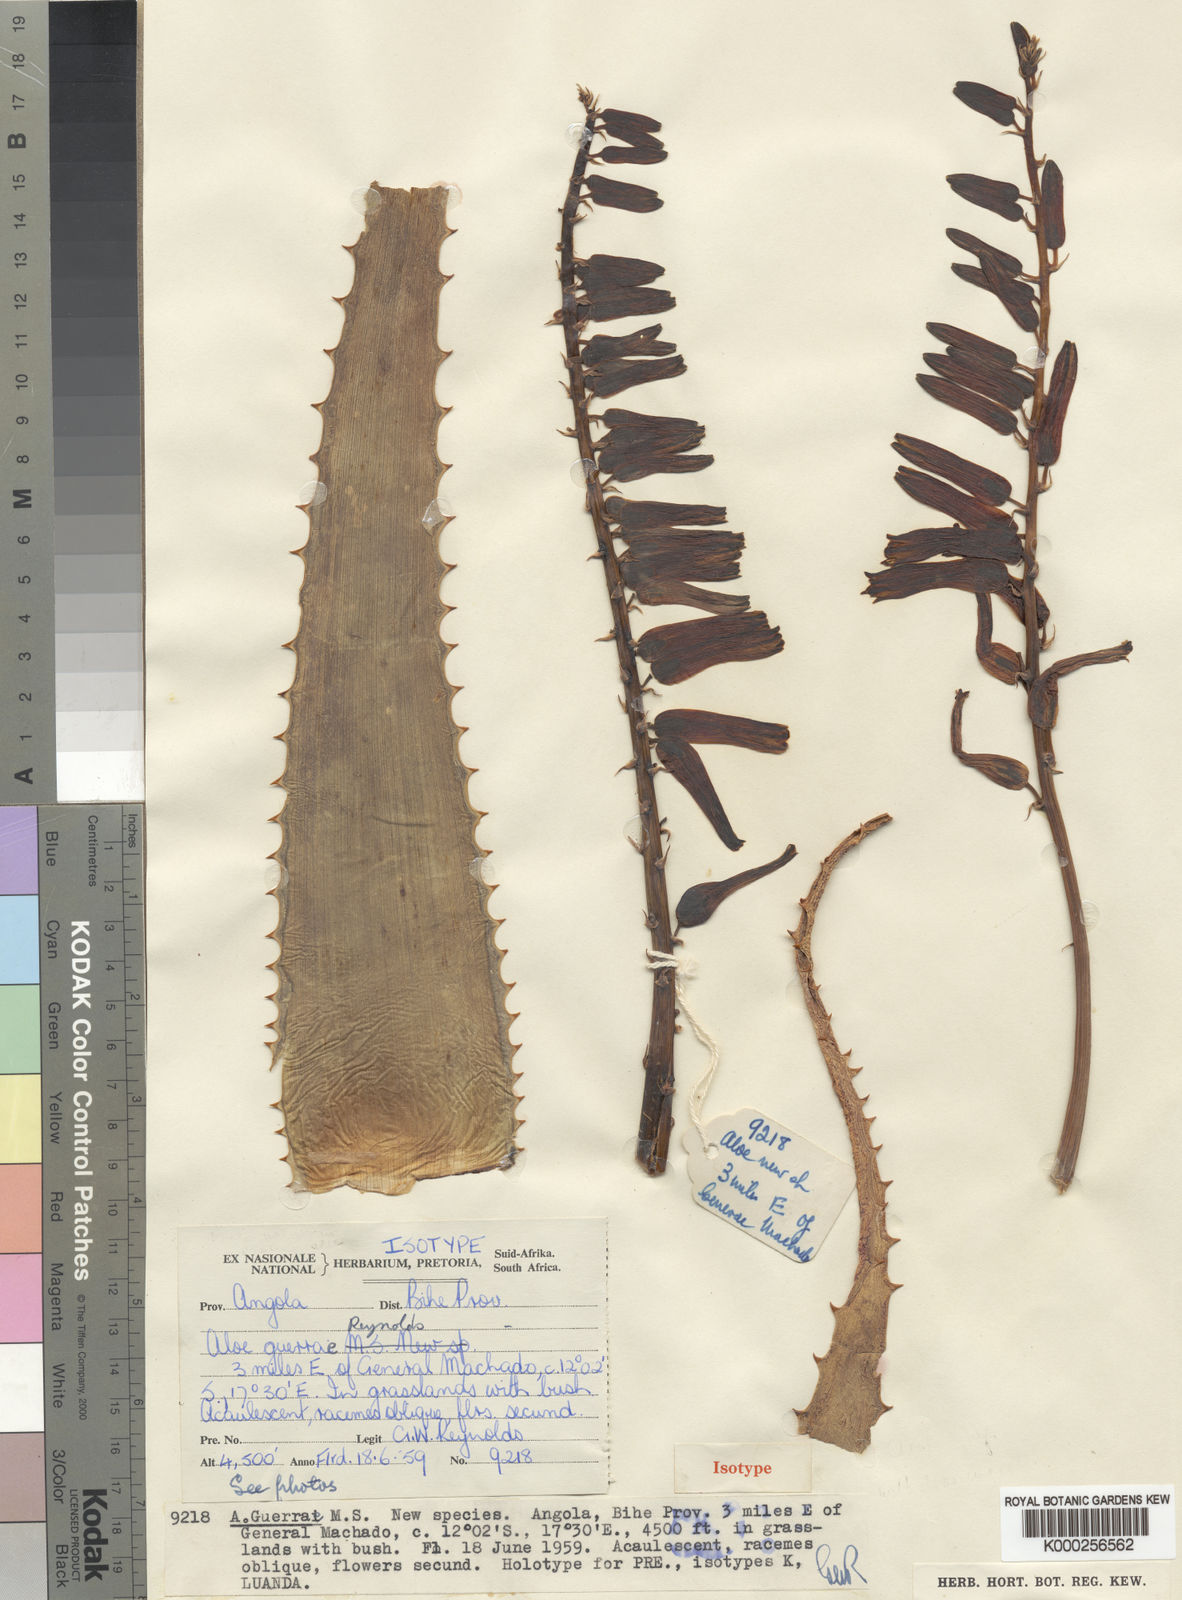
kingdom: Plantae
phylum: Tracheophyta
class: Liliopsida
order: Asparagales
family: Asphodelaceae
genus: Aloe
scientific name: Aloe guerrae
